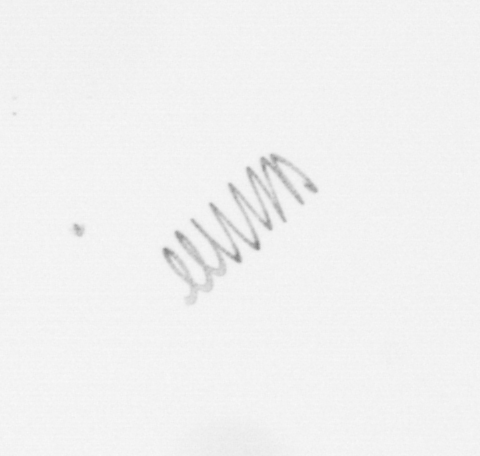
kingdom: Chromista
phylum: Ochrophyta
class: Bacillariophyceae
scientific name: Bacillariophyceae
